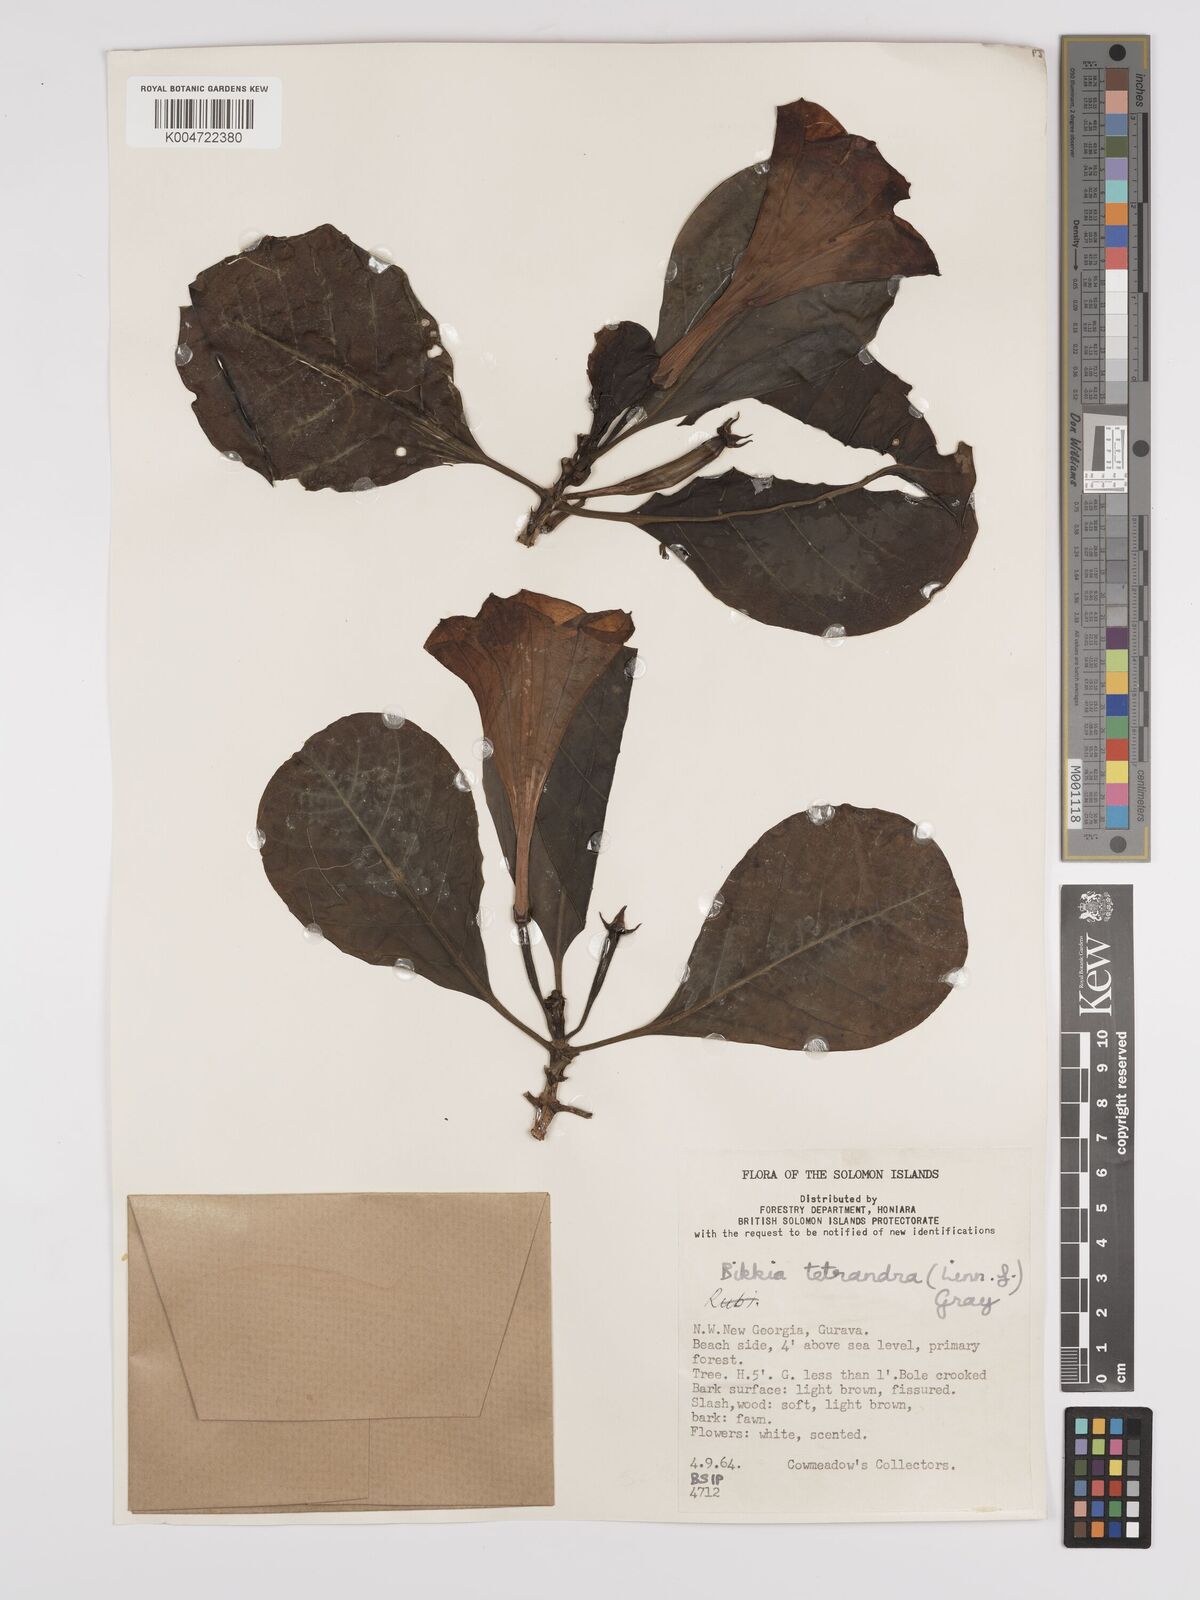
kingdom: Plantae
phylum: Tracheophyta
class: Magnoliopsida
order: Gentianales
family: Rubiaceae
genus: Bikkia
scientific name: Bikkia
